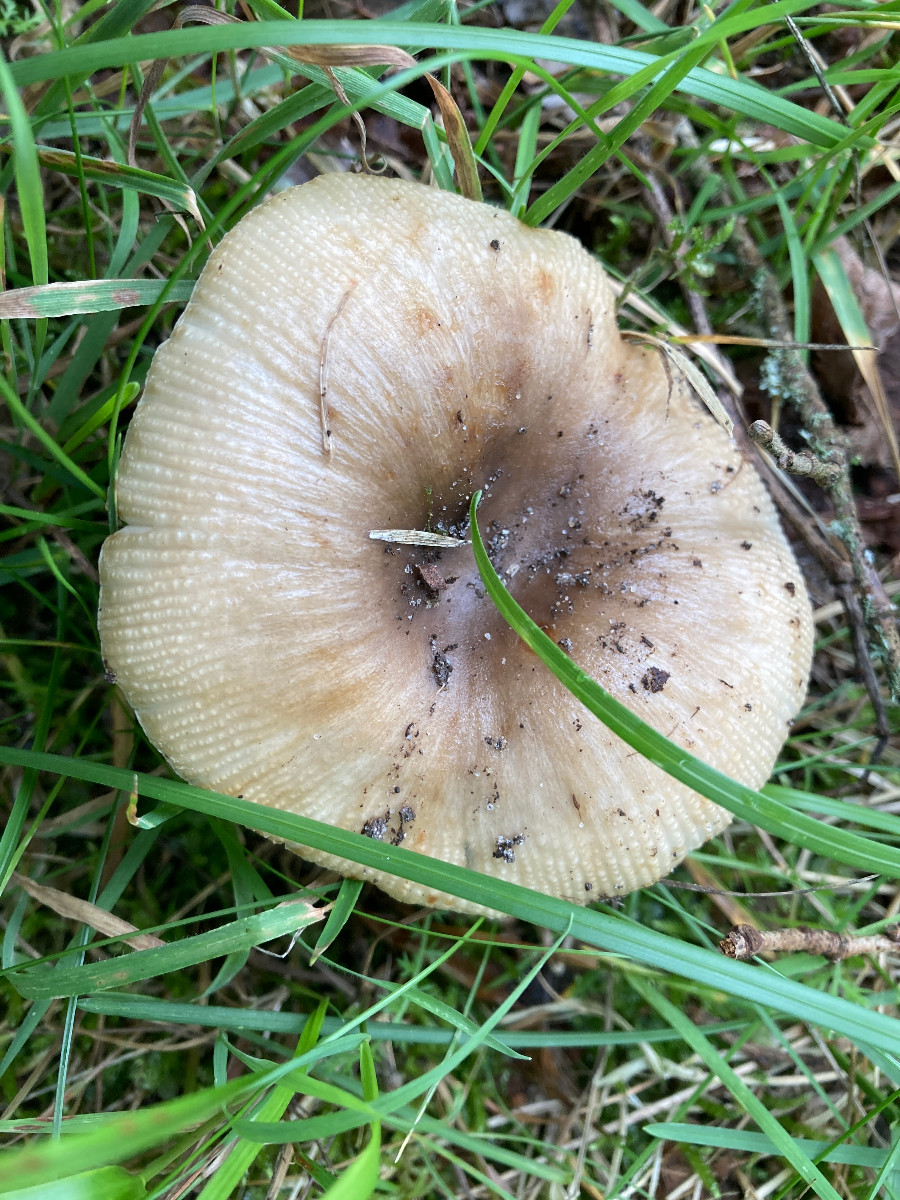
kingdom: Fungi
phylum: Basidiomycota
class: Agaricomycetes
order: Russulales
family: Russulaceae
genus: Russula
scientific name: Russula recondita
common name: mild kam-skørhat
